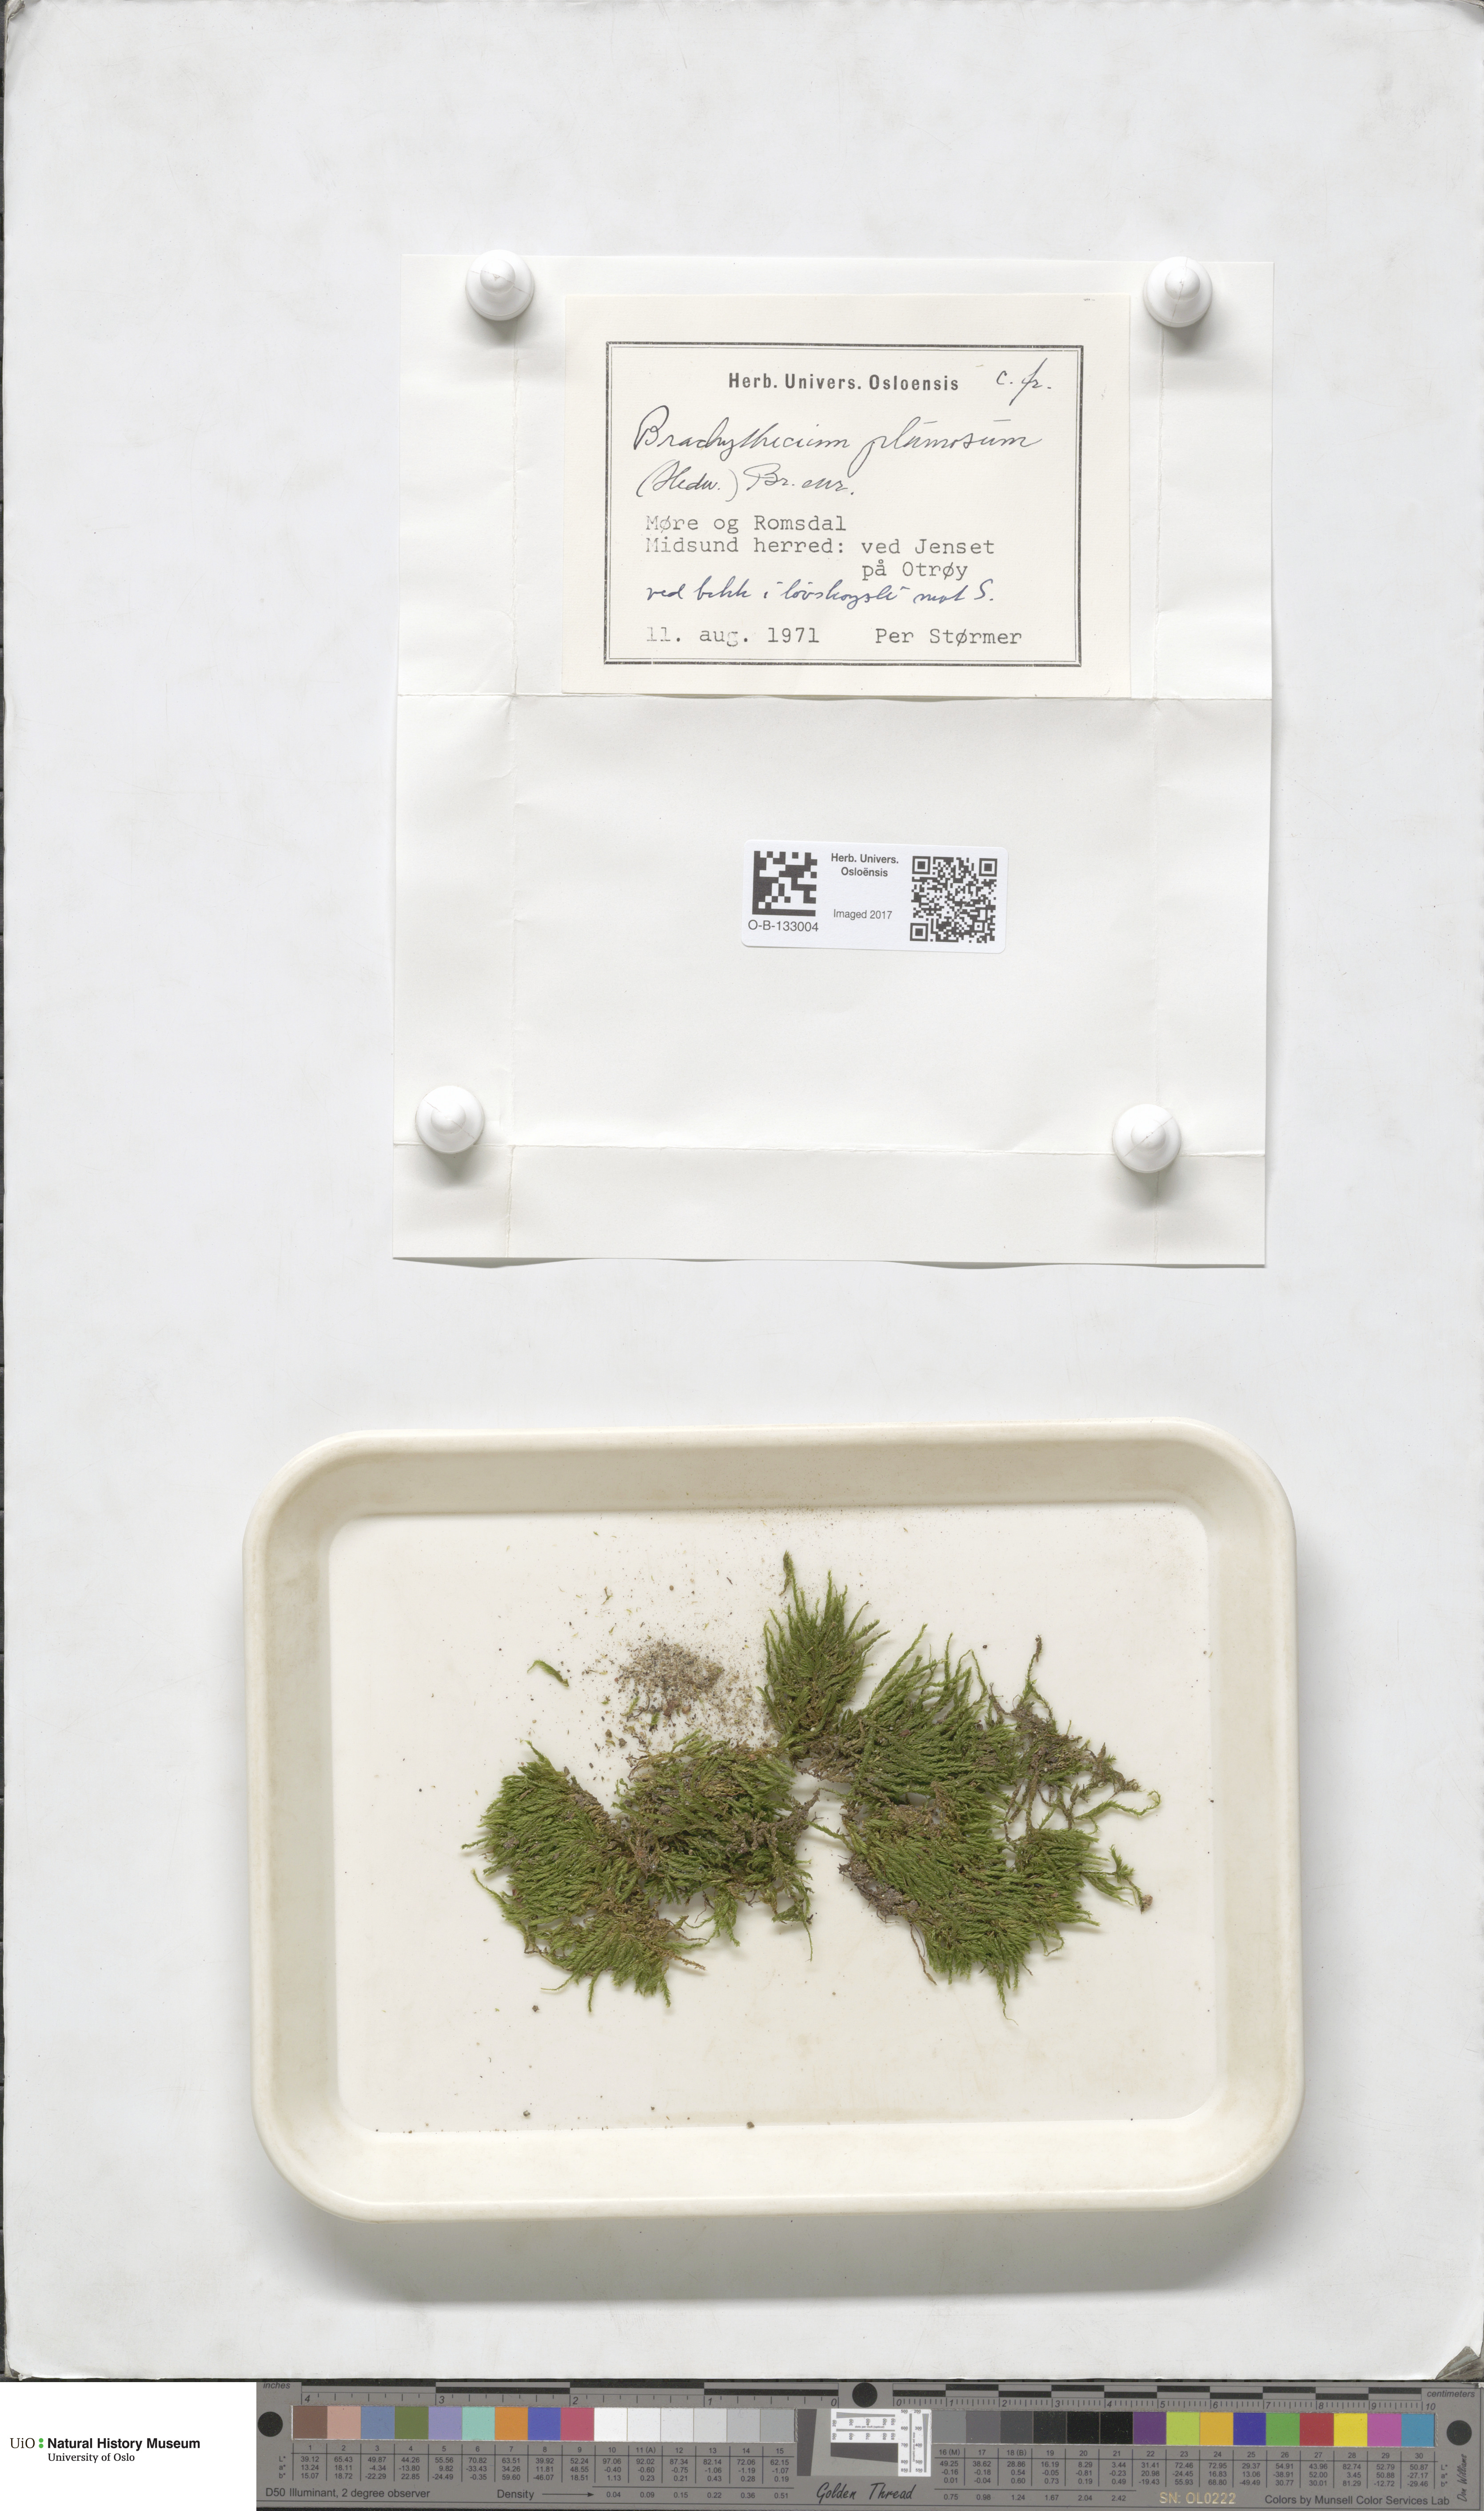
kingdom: Plantae
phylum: Bryophyta
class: Bryopsida
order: Hypnales
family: Brachytheciaceae
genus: Sciuro-hypnum
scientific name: Sciuro-hypnum plumosum
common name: Rusty feather-moss
